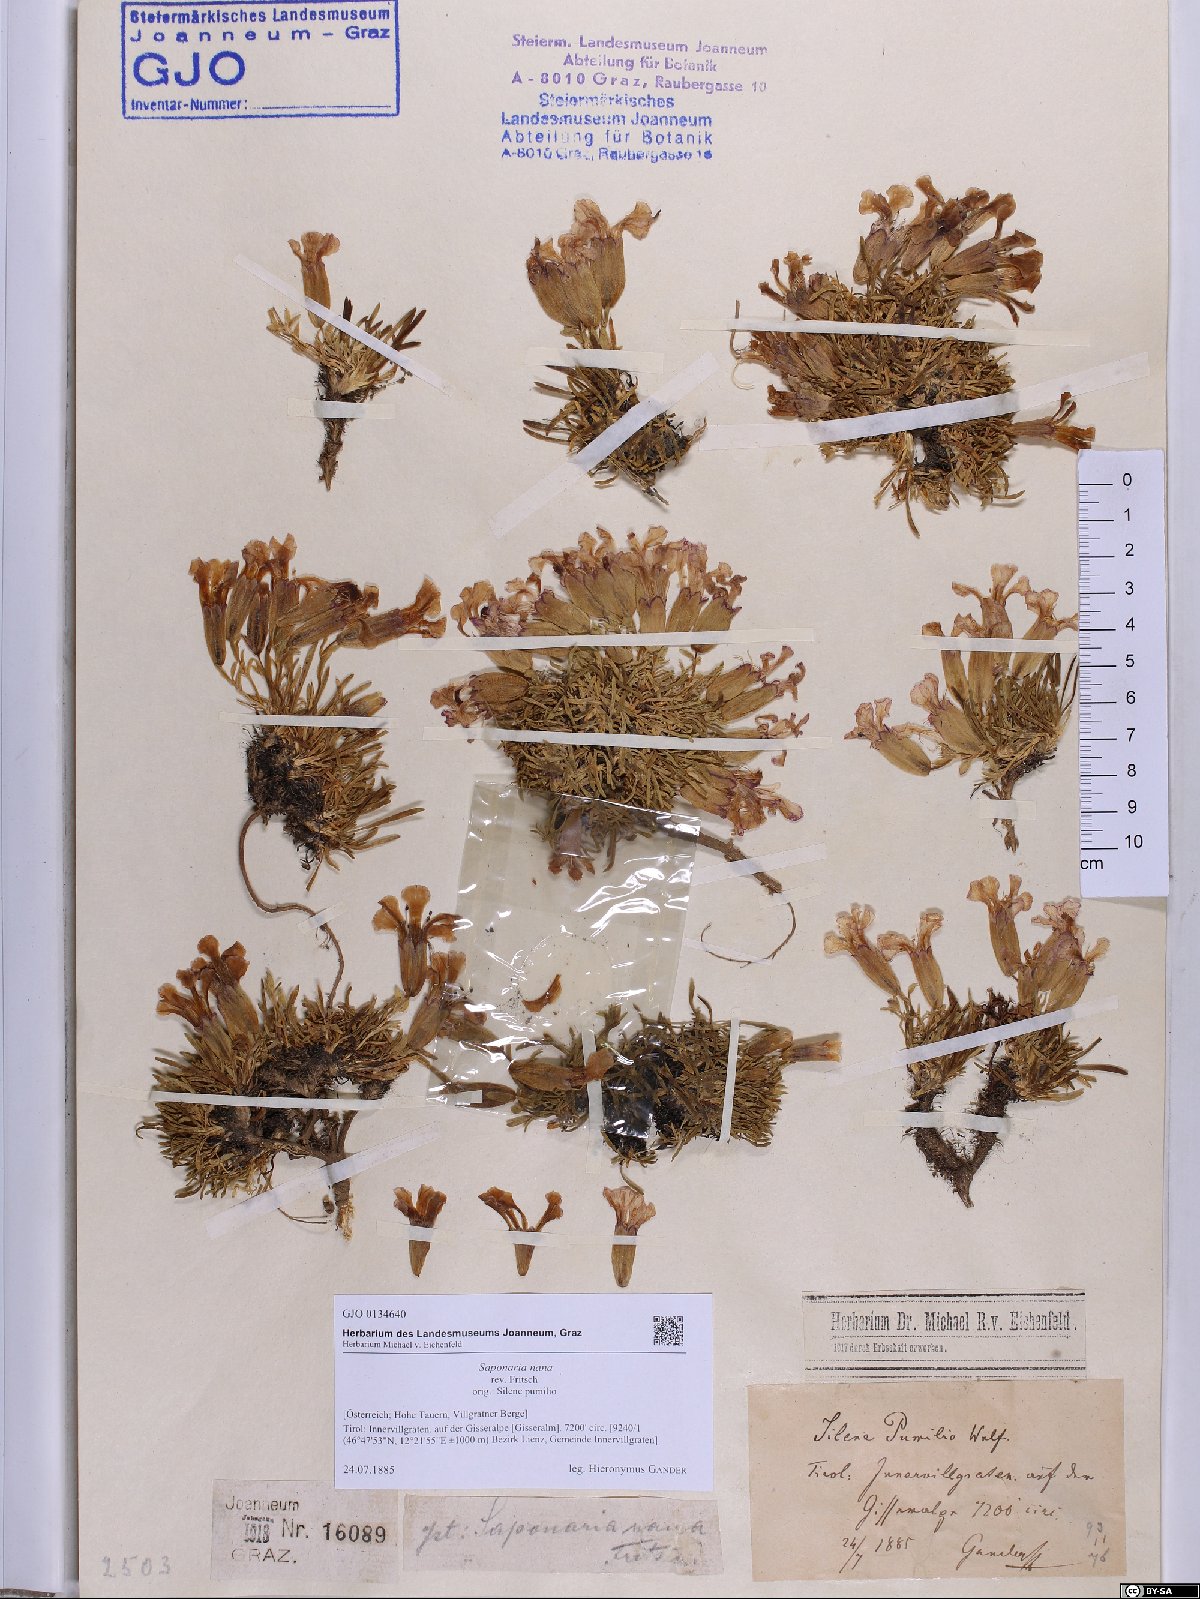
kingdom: Plantae
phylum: Tracheophyta
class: Magnoliopsida
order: Caryophyllales
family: Caryophyllaceae
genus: Saponaria
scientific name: Saponaria pumila
